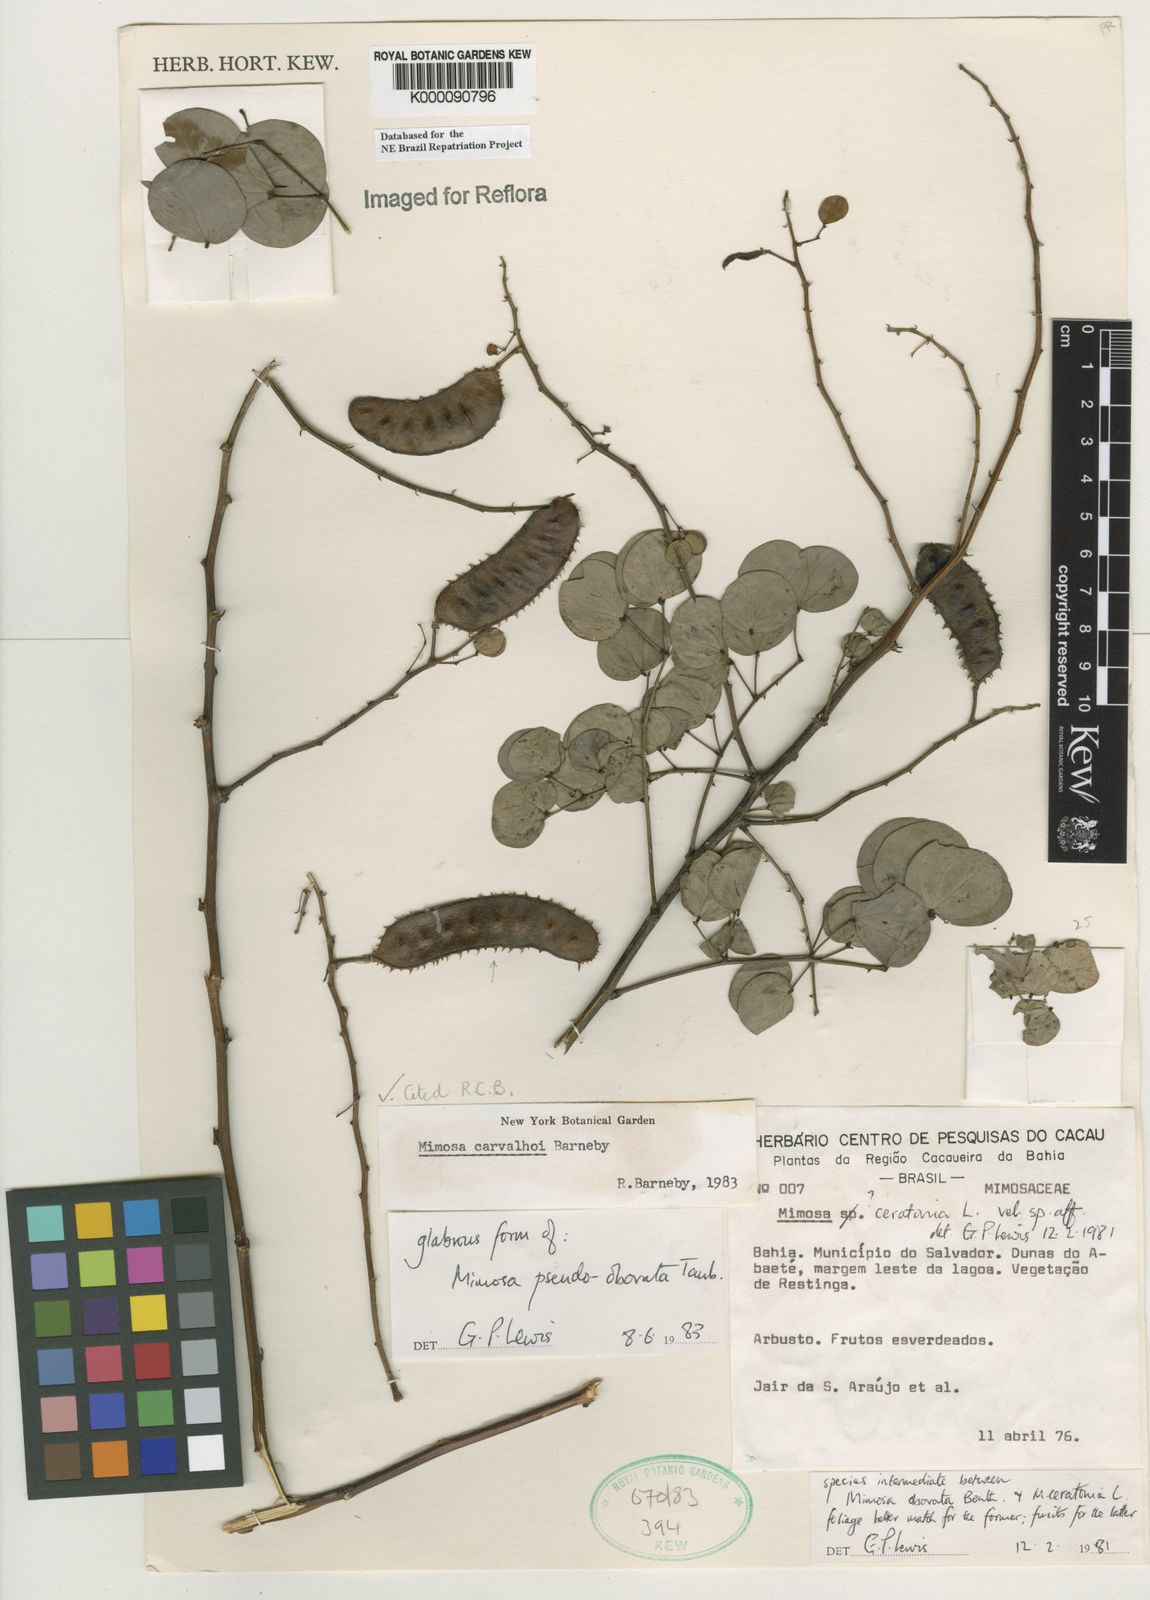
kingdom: Plantae
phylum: Tracheophyta
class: Magnoliopsida
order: Fabales
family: Fabaceae
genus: Mimosa
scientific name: Mimosa carvalhoi
